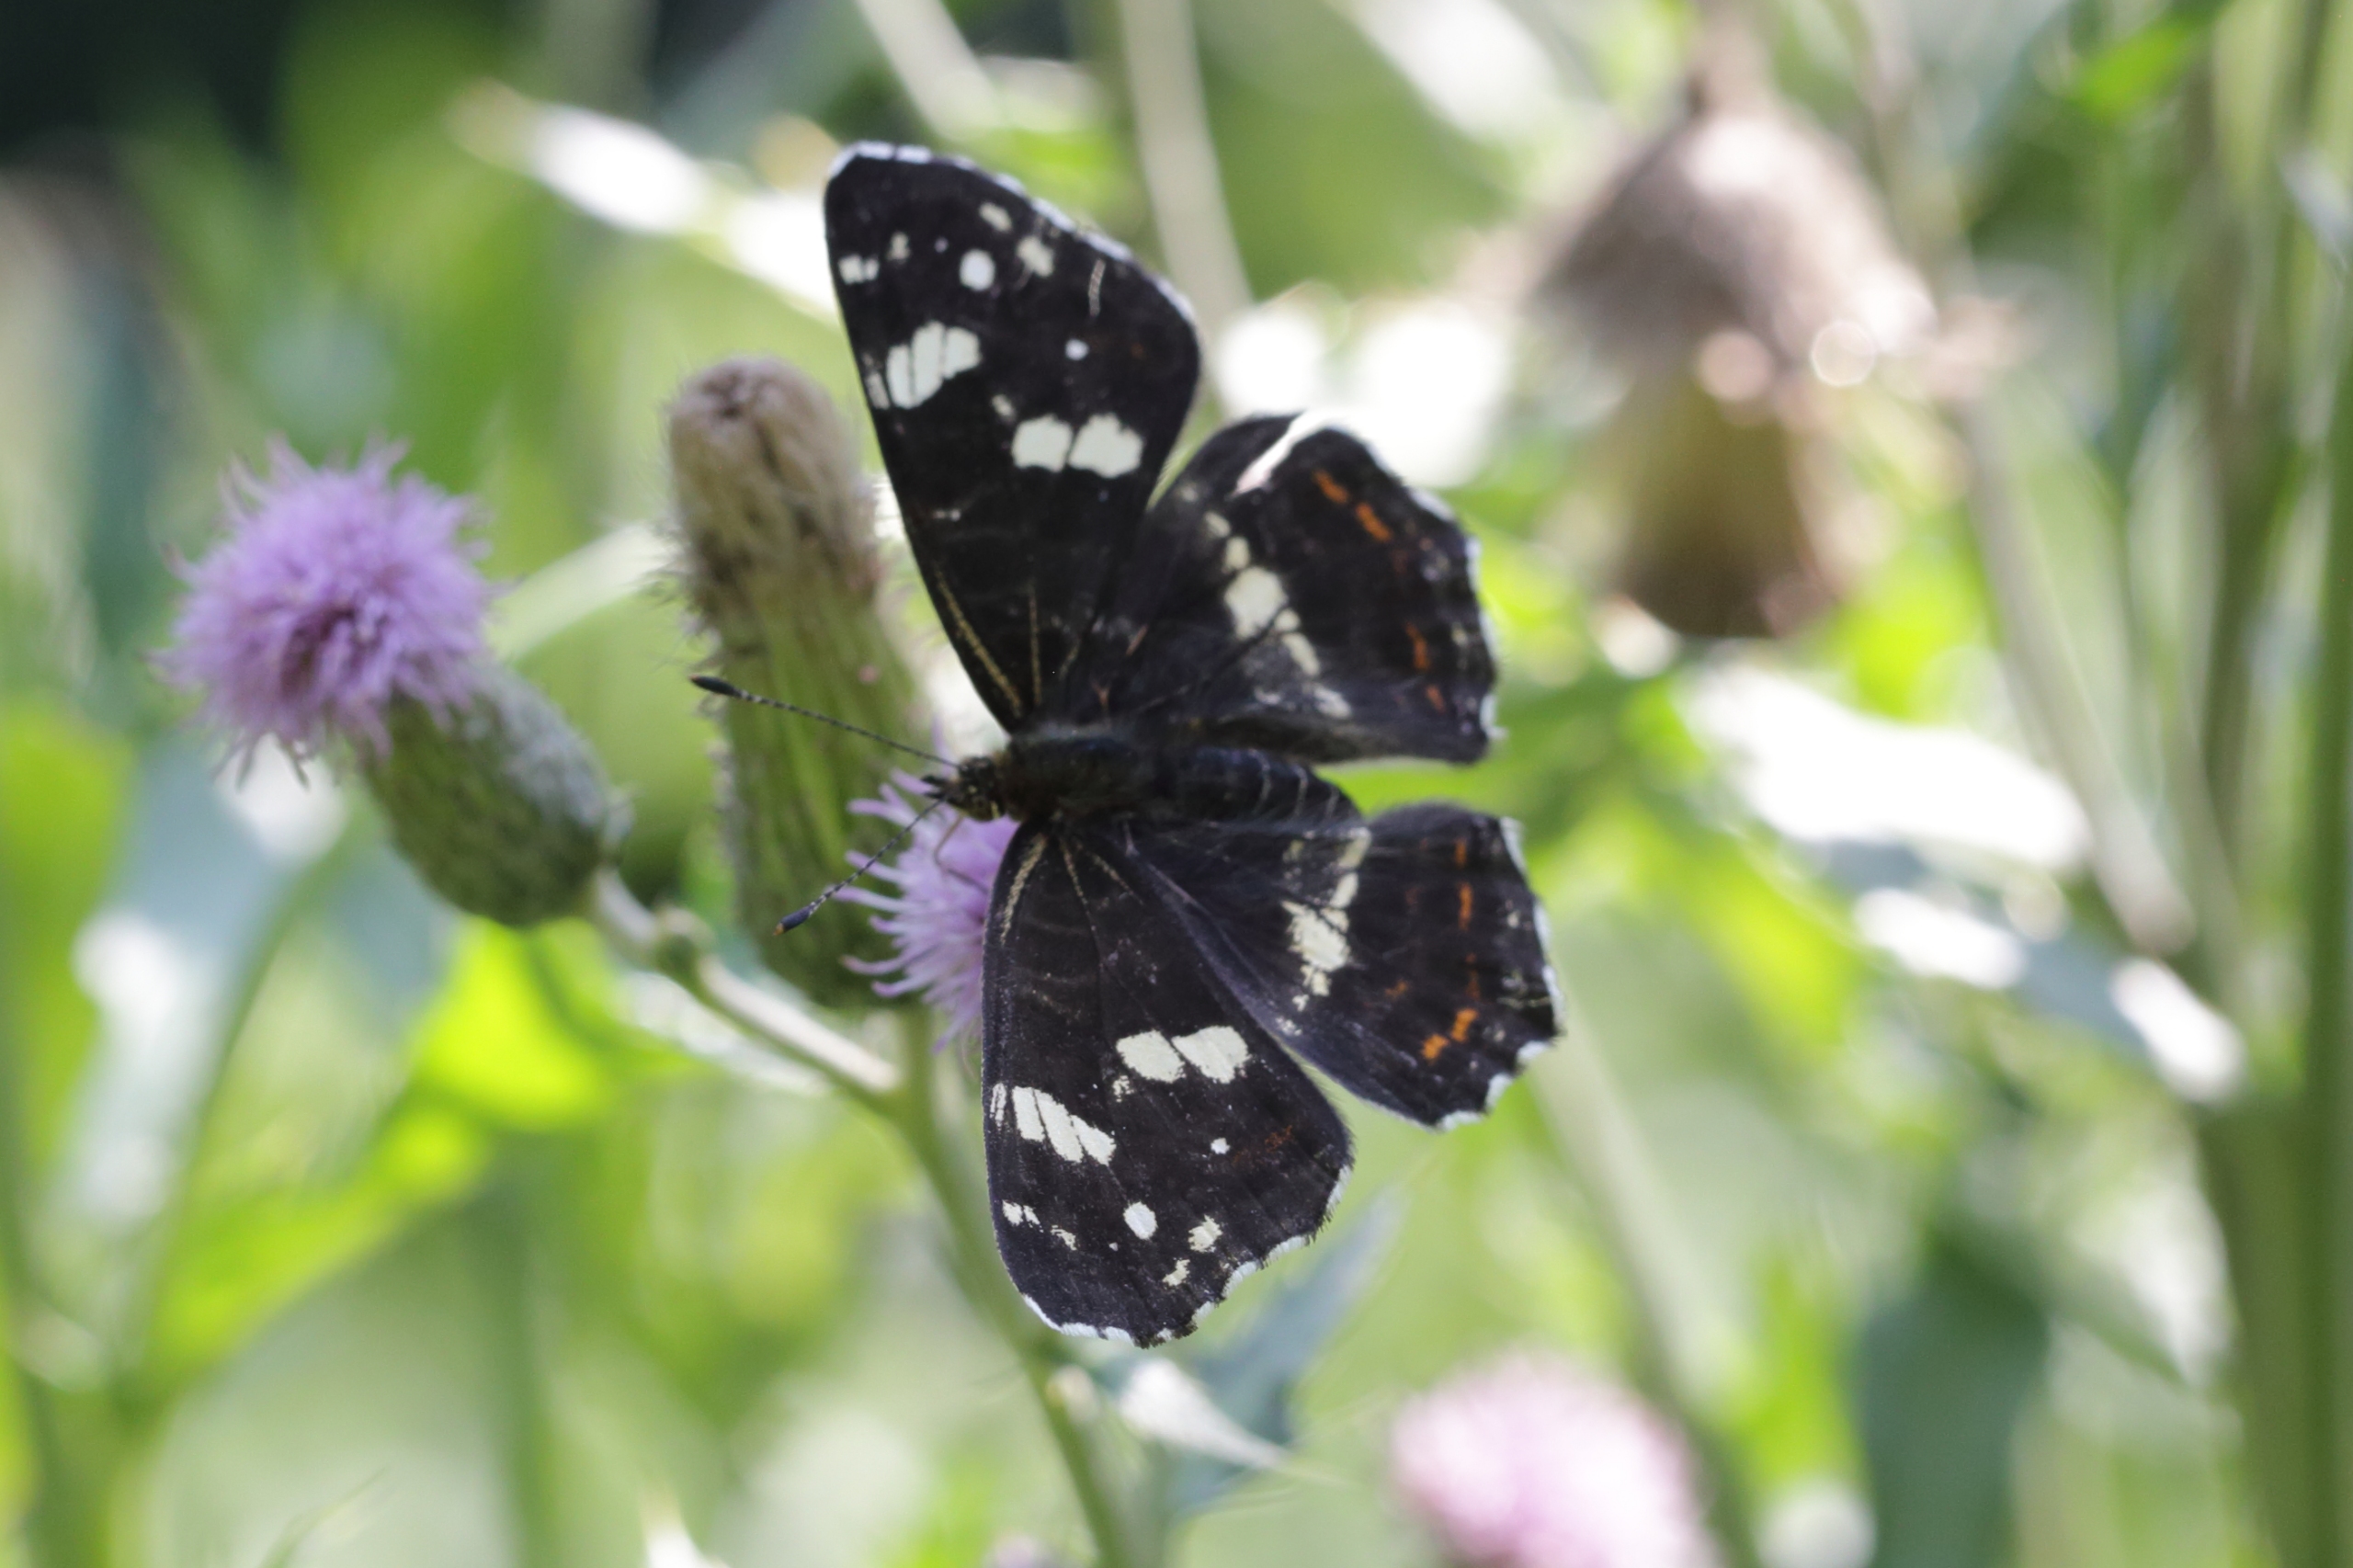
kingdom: Animalia
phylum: Arthropoda
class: Insecta
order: Lepidoptera
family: Nymphalidae
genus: Araschnia
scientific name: Araschnia levana
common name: Nældesommerfugl
